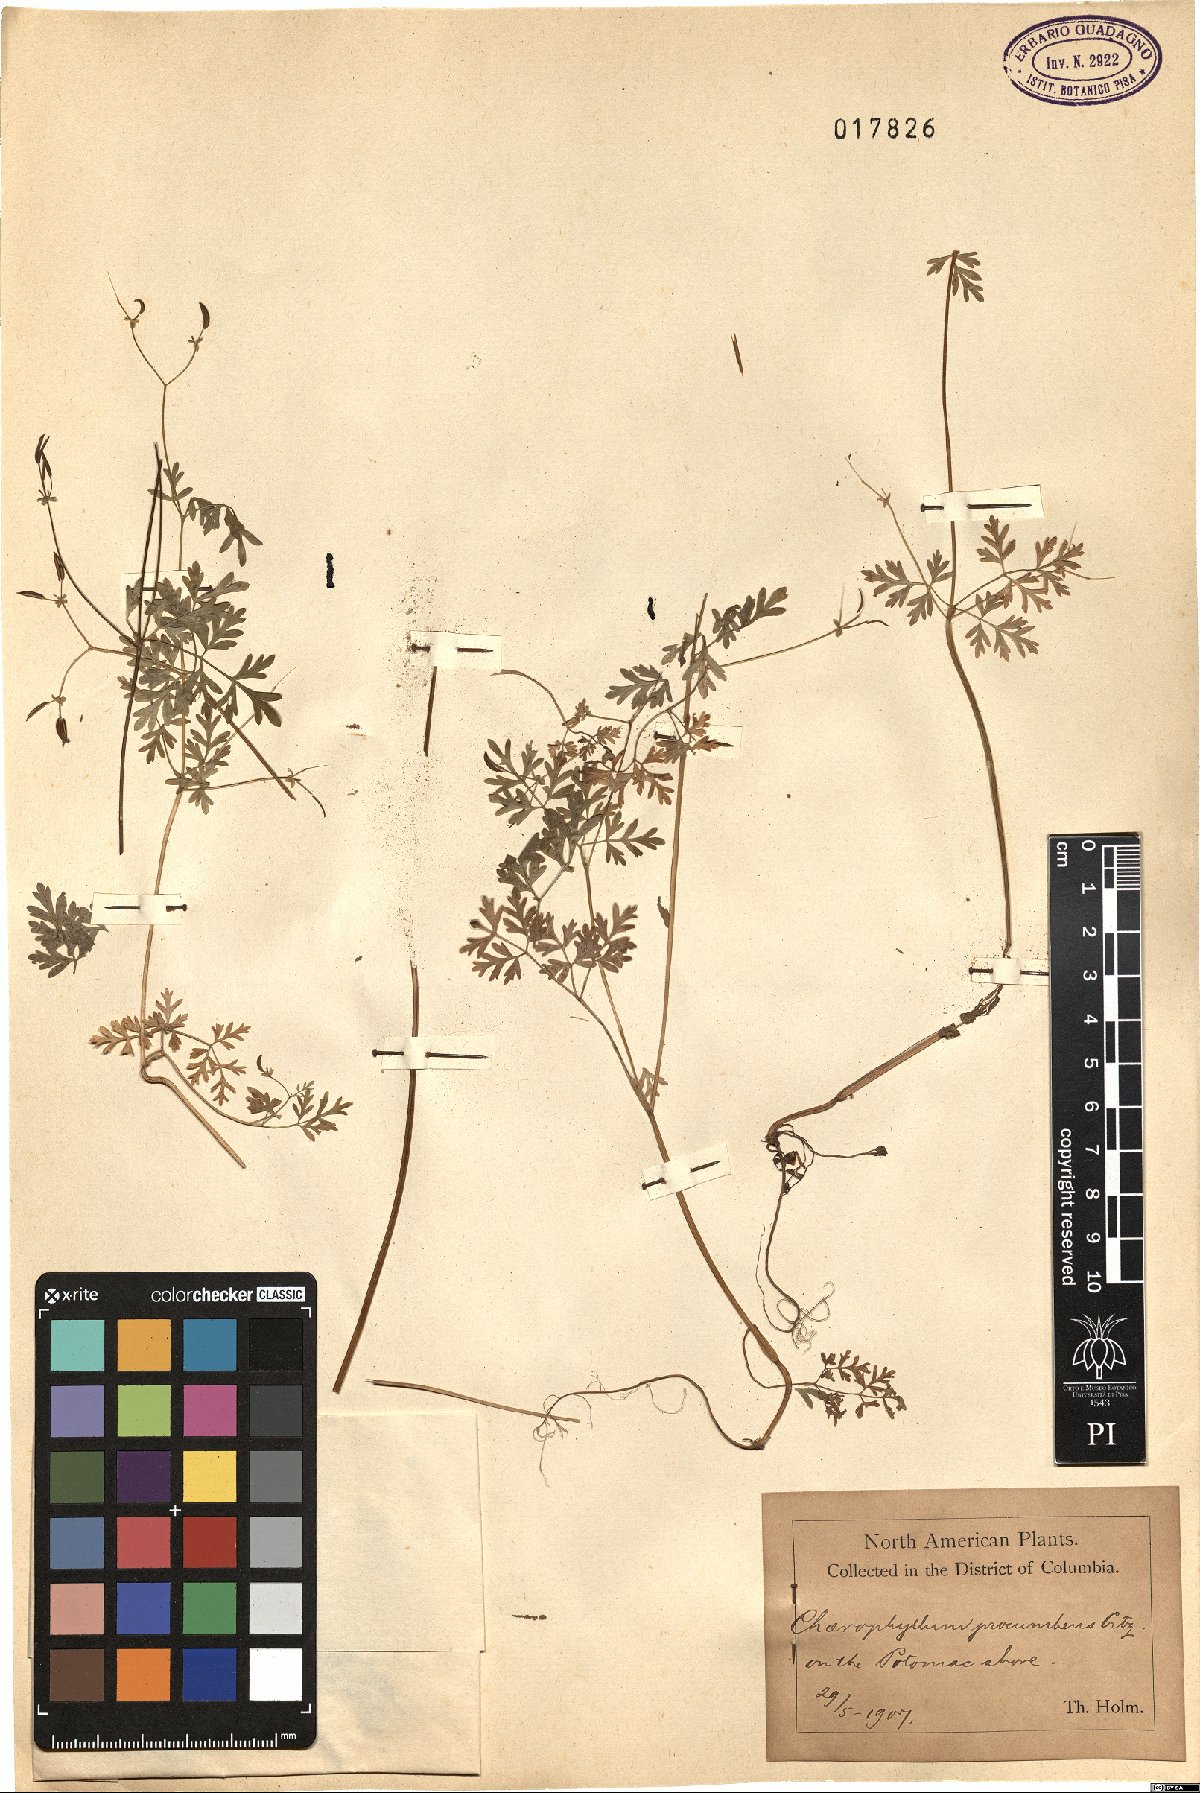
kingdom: Plantae
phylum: Tracheophyta
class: Magnoliopsida
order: Apiales
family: Apiaceae
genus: Chaerophyllum
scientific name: Chaerophyllum procumbens
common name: Spreading chervil
